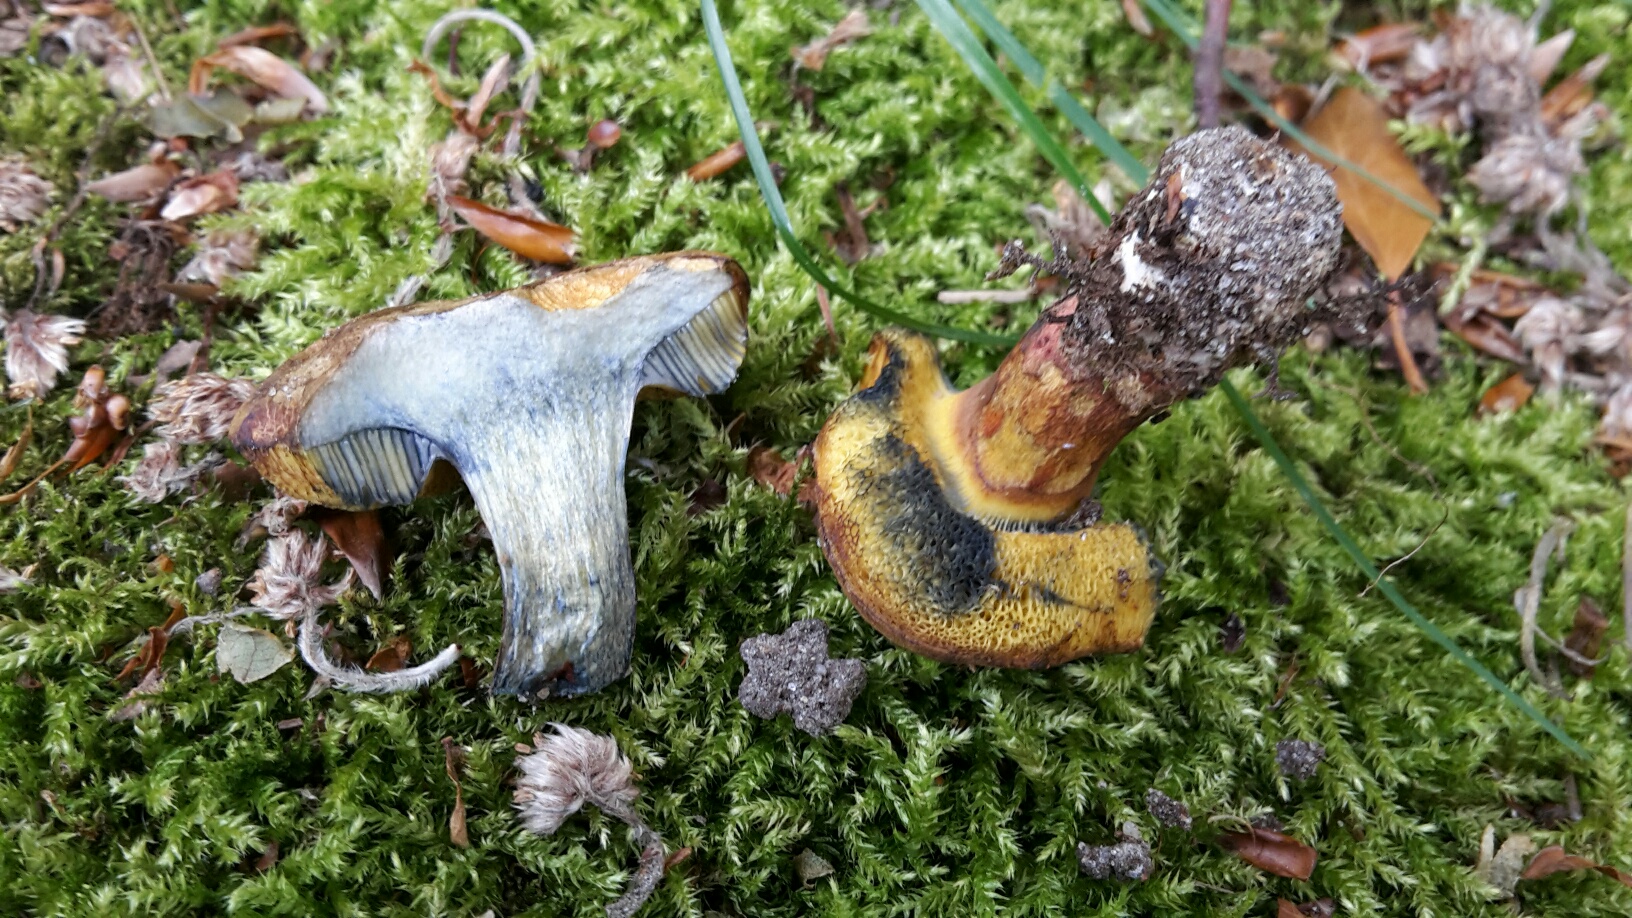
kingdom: Fungi
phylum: Basidiomycota
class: Agaricomycetes
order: Boletales
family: Boletaceae
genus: Cyanoboletus
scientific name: Cyanoboletus pulverulentus
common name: sortblånende rørhat
